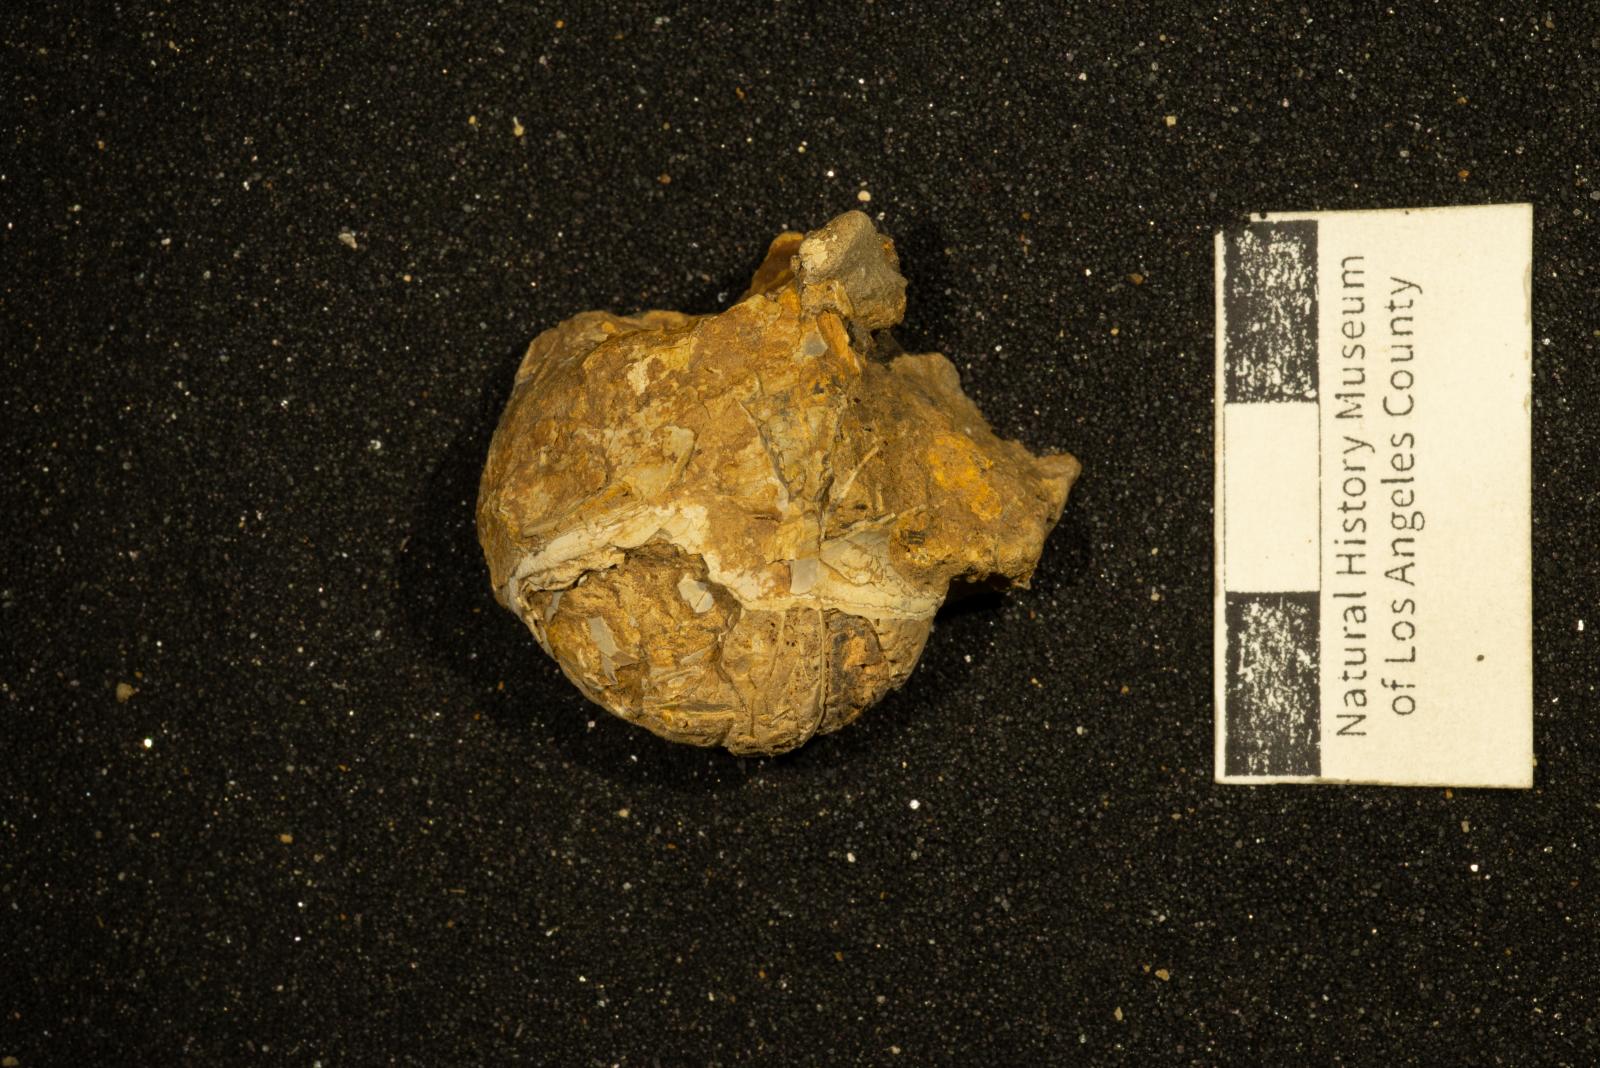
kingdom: Animalia
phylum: Mollusca
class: Cephalopoda
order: Nautilida
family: Nautilidae
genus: Eutrephoceras
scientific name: Eutrephoceras
